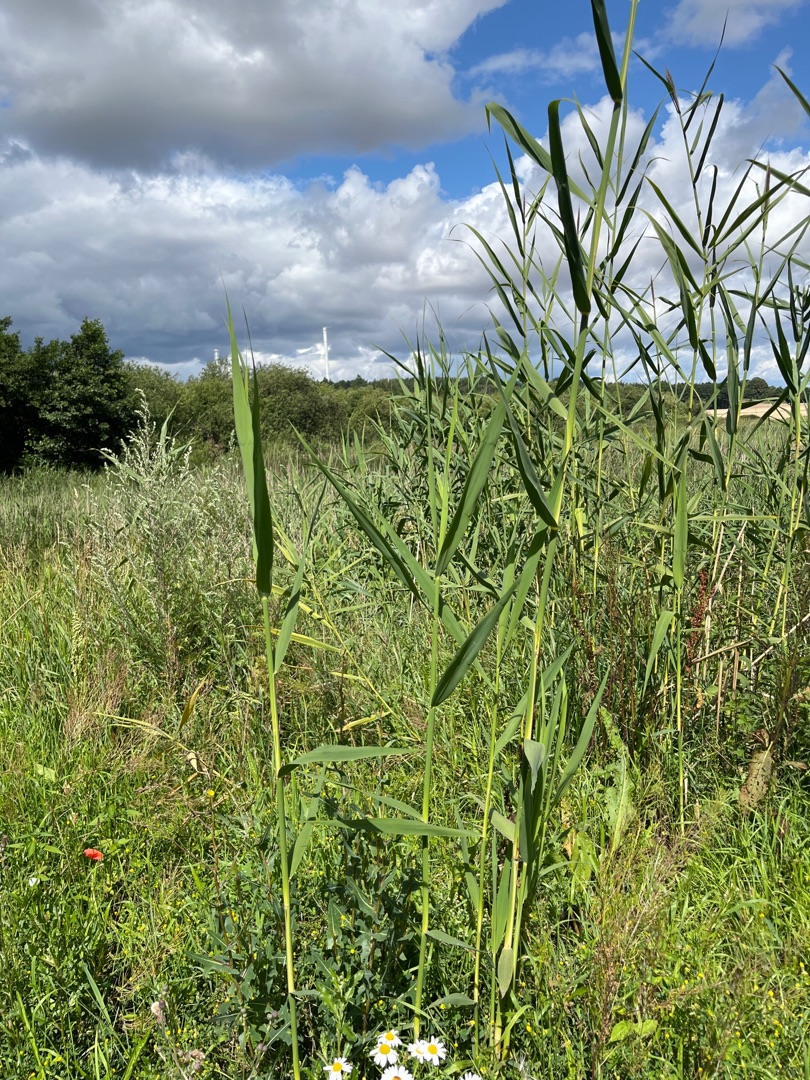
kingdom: Plantae
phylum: Tracheophyta
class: Liliopsida
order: Poales
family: Poaceae
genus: Phragmites
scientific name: Phragmites australis
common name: Tagrør
